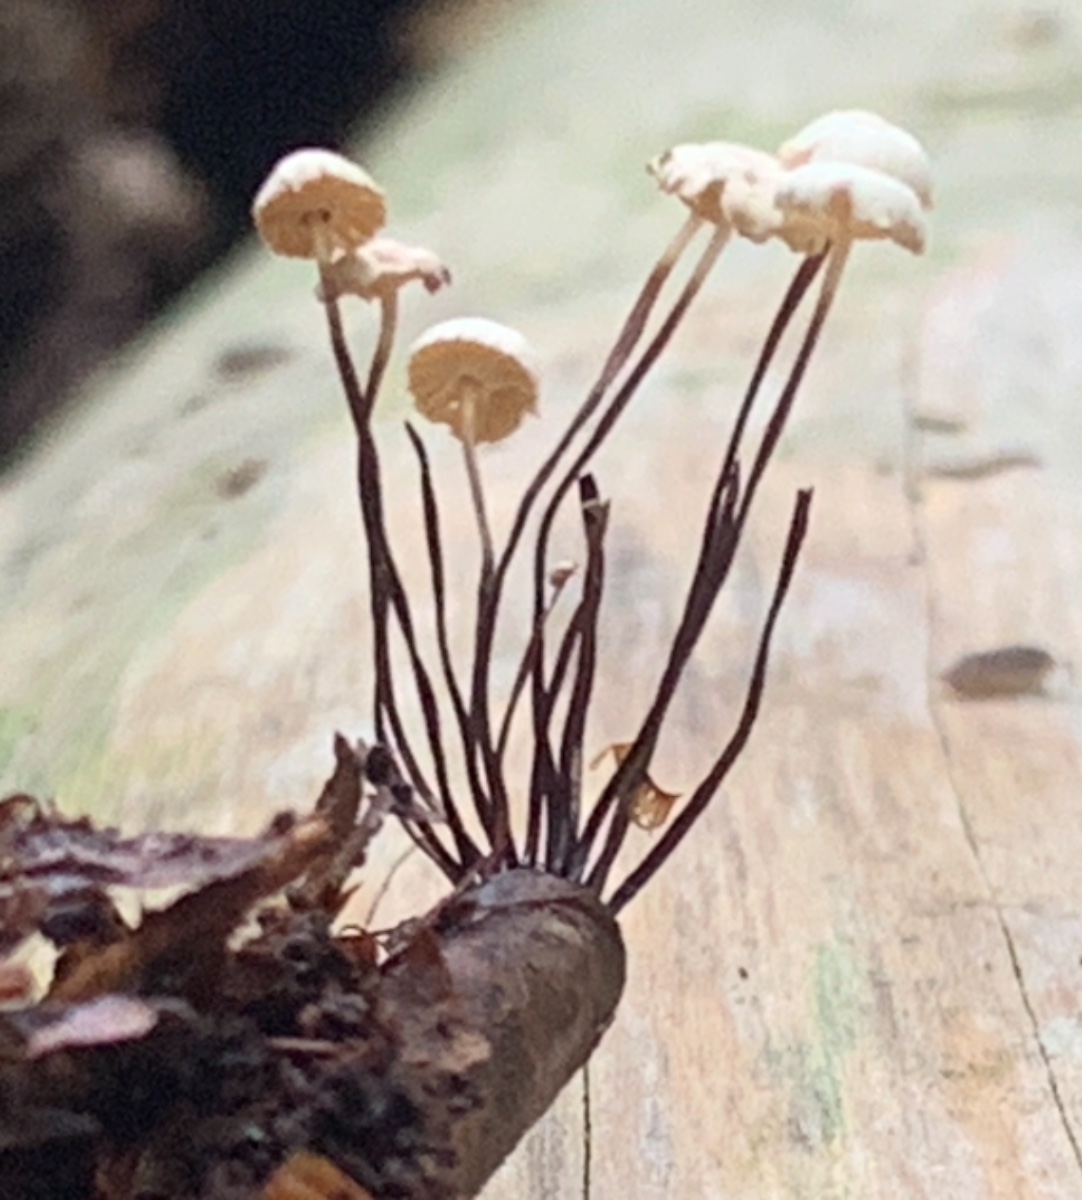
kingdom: Fungi
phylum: Basidiomycota
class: Agaricomycetes
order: Agaricales
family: Marasmiaceae
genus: Marasmius
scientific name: Marasmius rotula
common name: hjul-bruskhat
